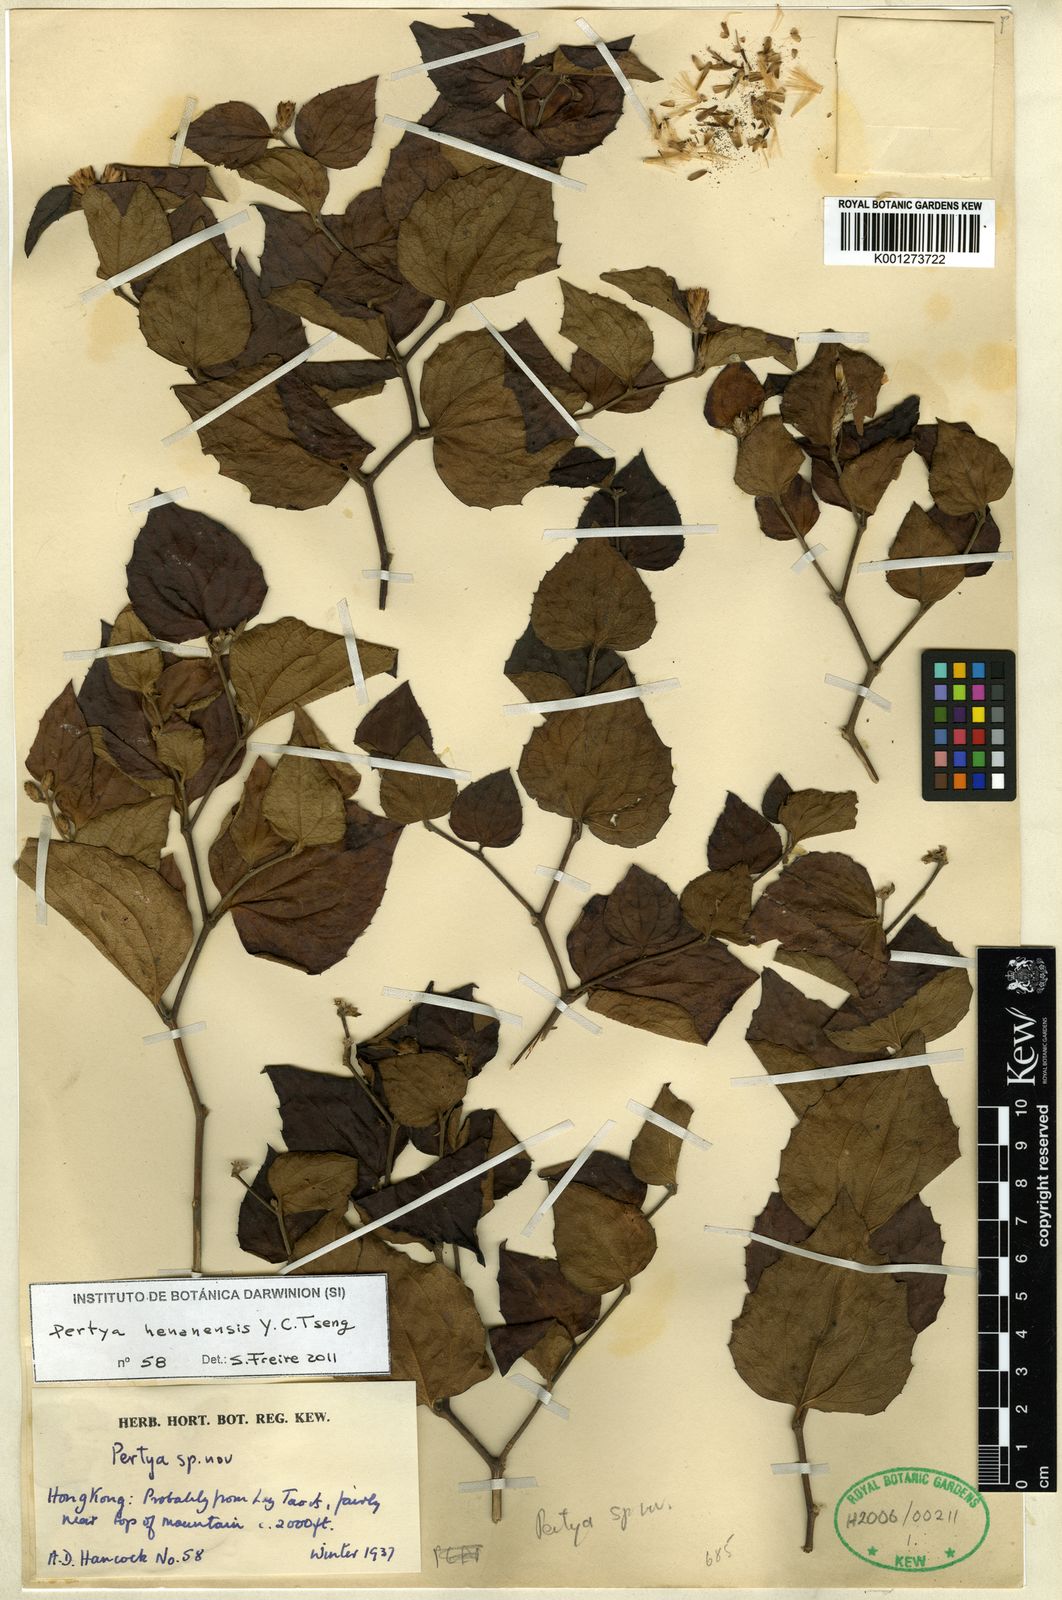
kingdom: Plantae
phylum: Tracheophyta
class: Magnoliopsida
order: Asterales
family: Asteraceae
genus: Pertya
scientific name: Pertya henanensis
